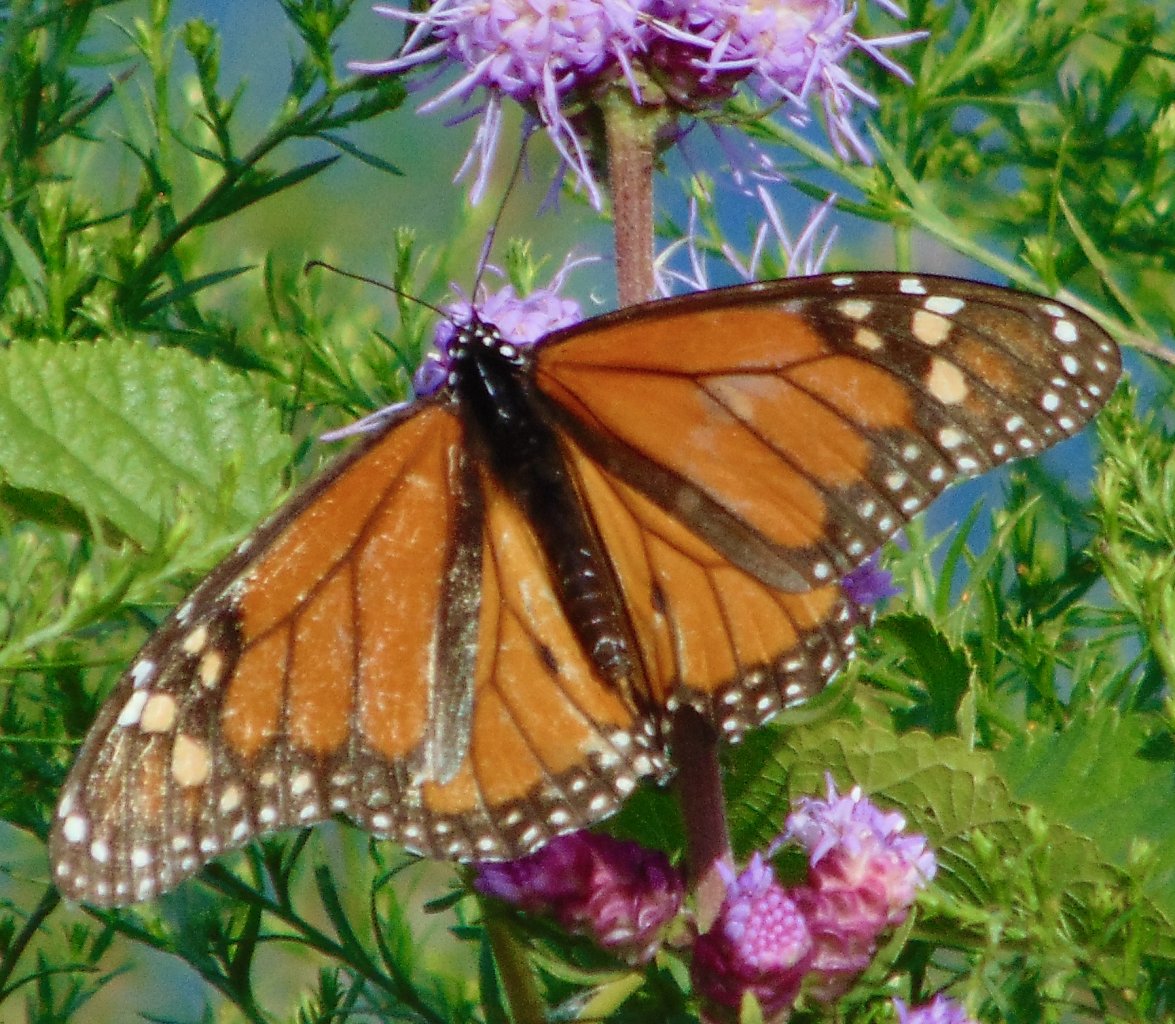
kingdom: Animalia
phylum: Arthropoda
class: Insecta
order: Lepidoptera
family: Nymphalidae
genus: Danaus
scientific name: Danaus plexippus
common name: Monarch
